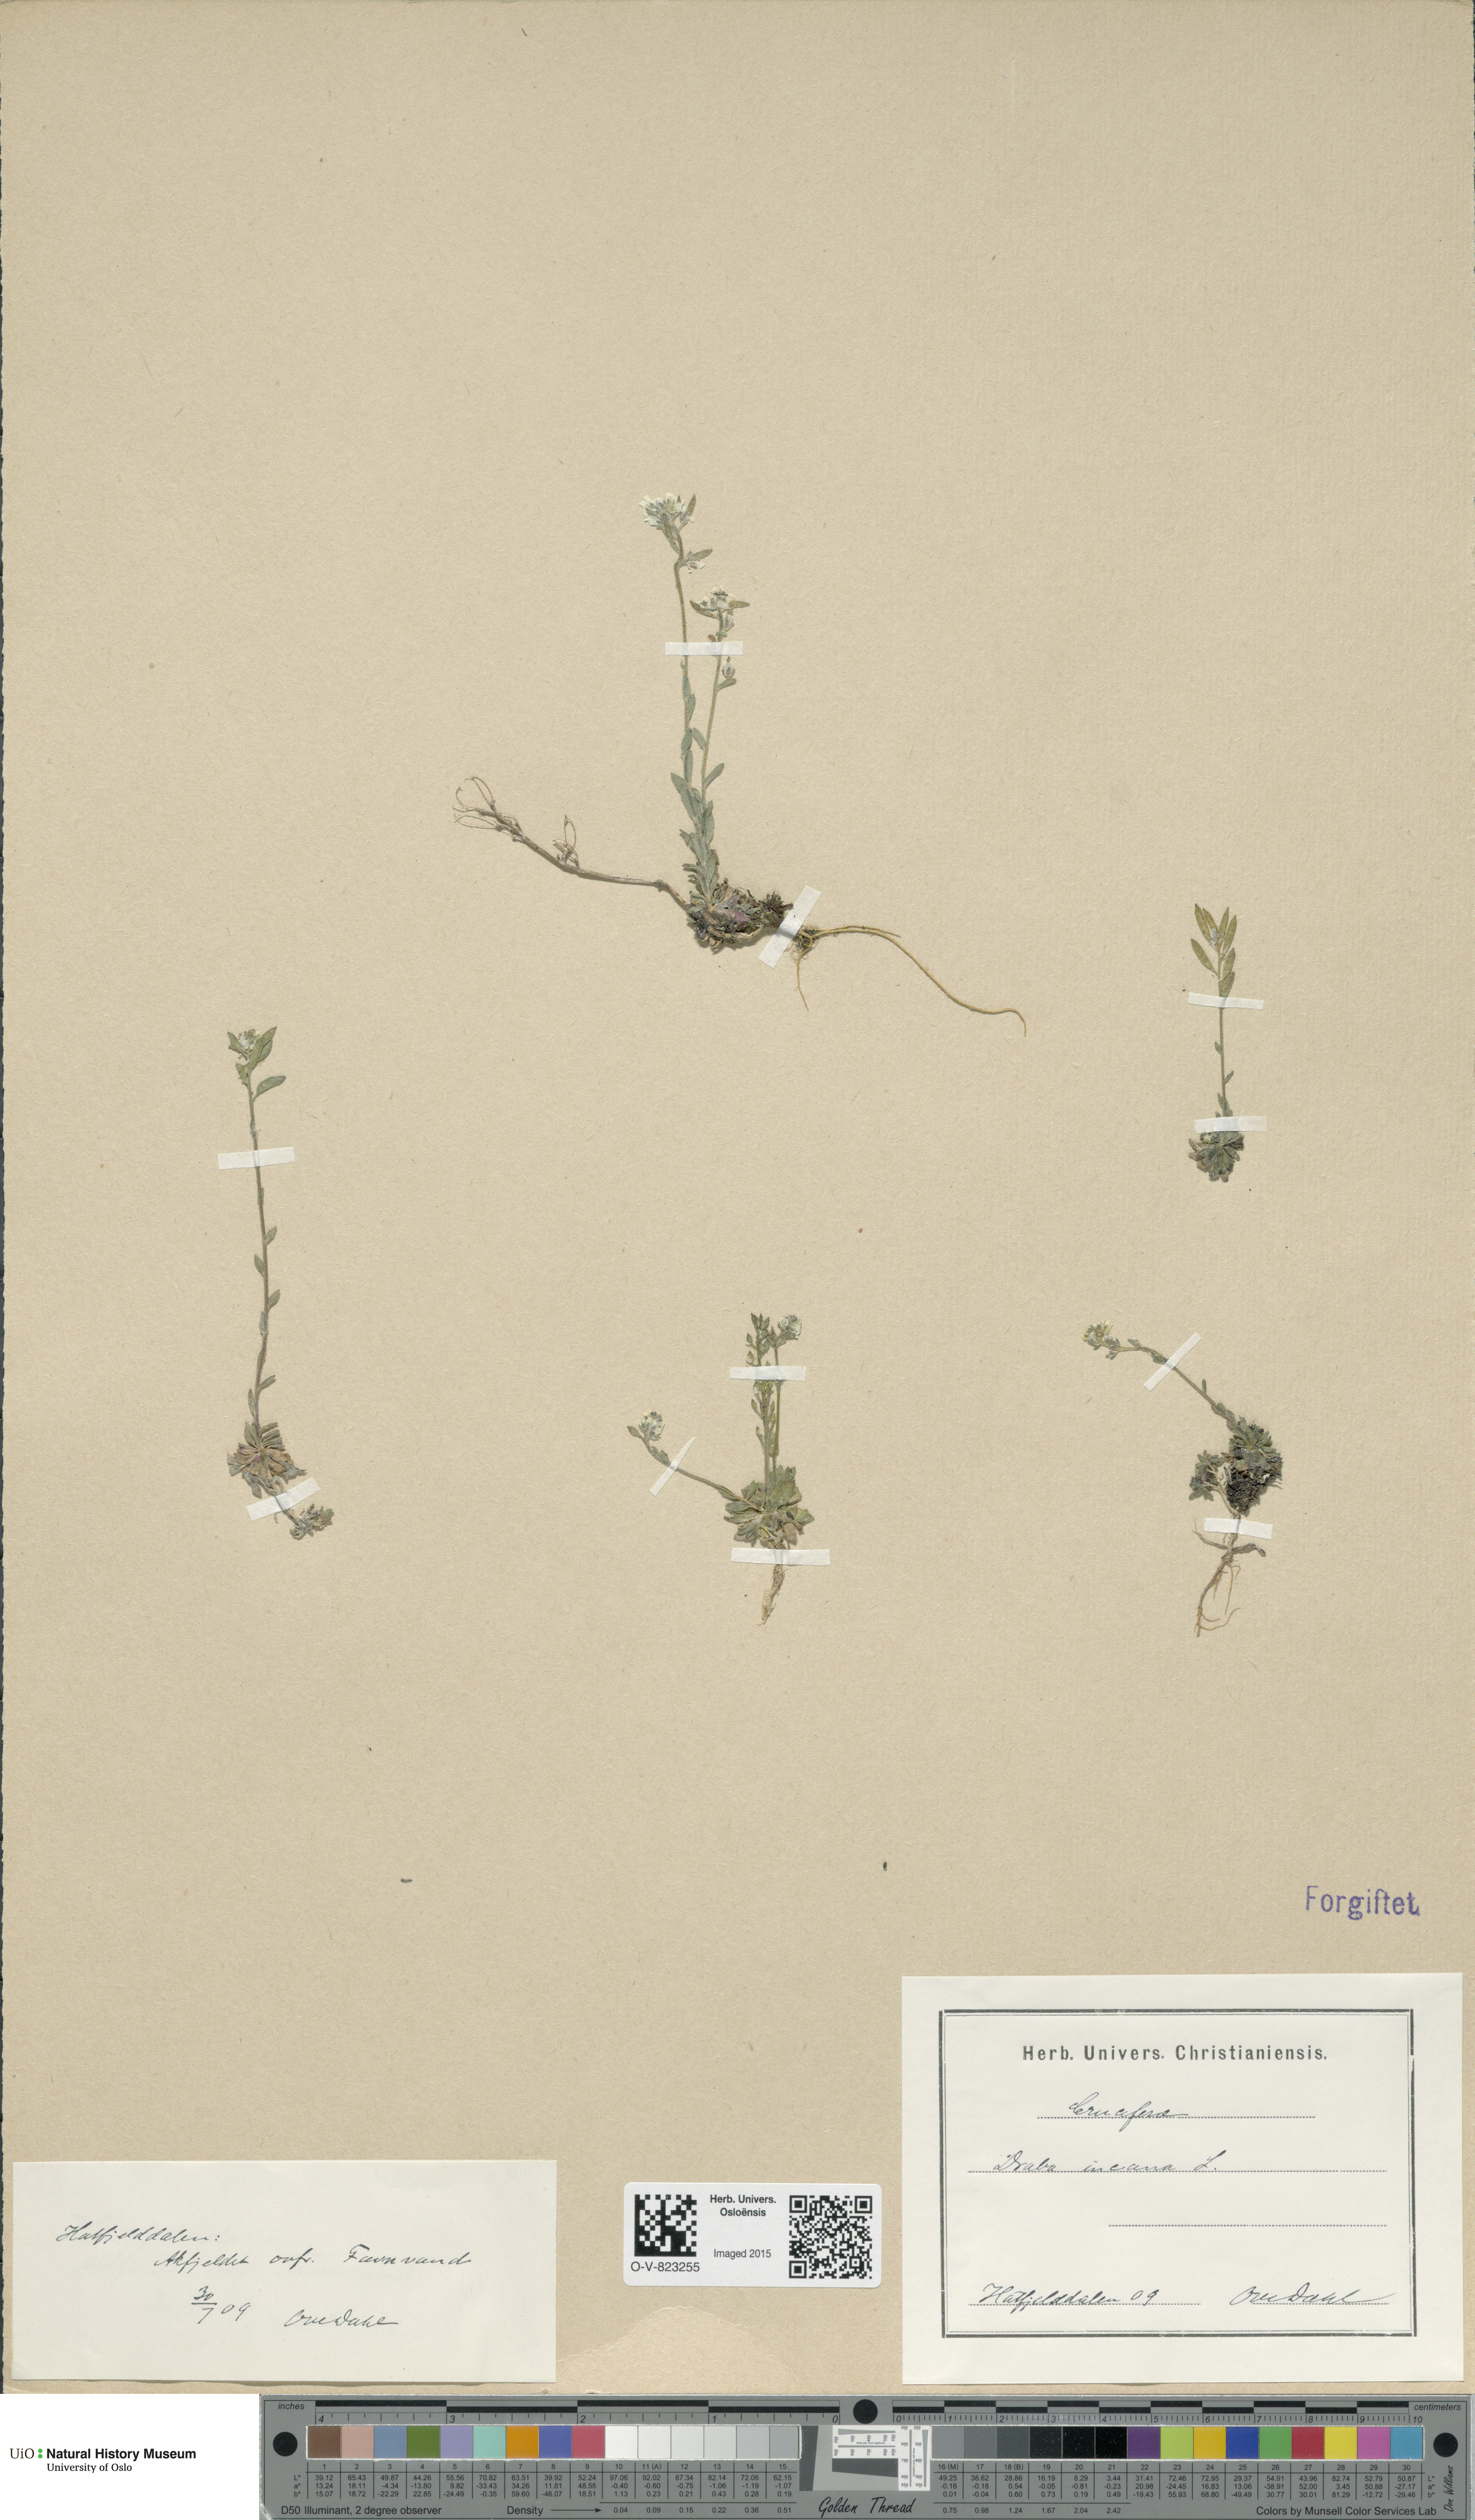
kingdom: Plantae
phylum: Tracheophyta
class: Magnoliopsida
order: Brassicales
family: Brassicaceae
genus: Draba
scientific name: Draba incana
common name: Hoary whitlow-grass
